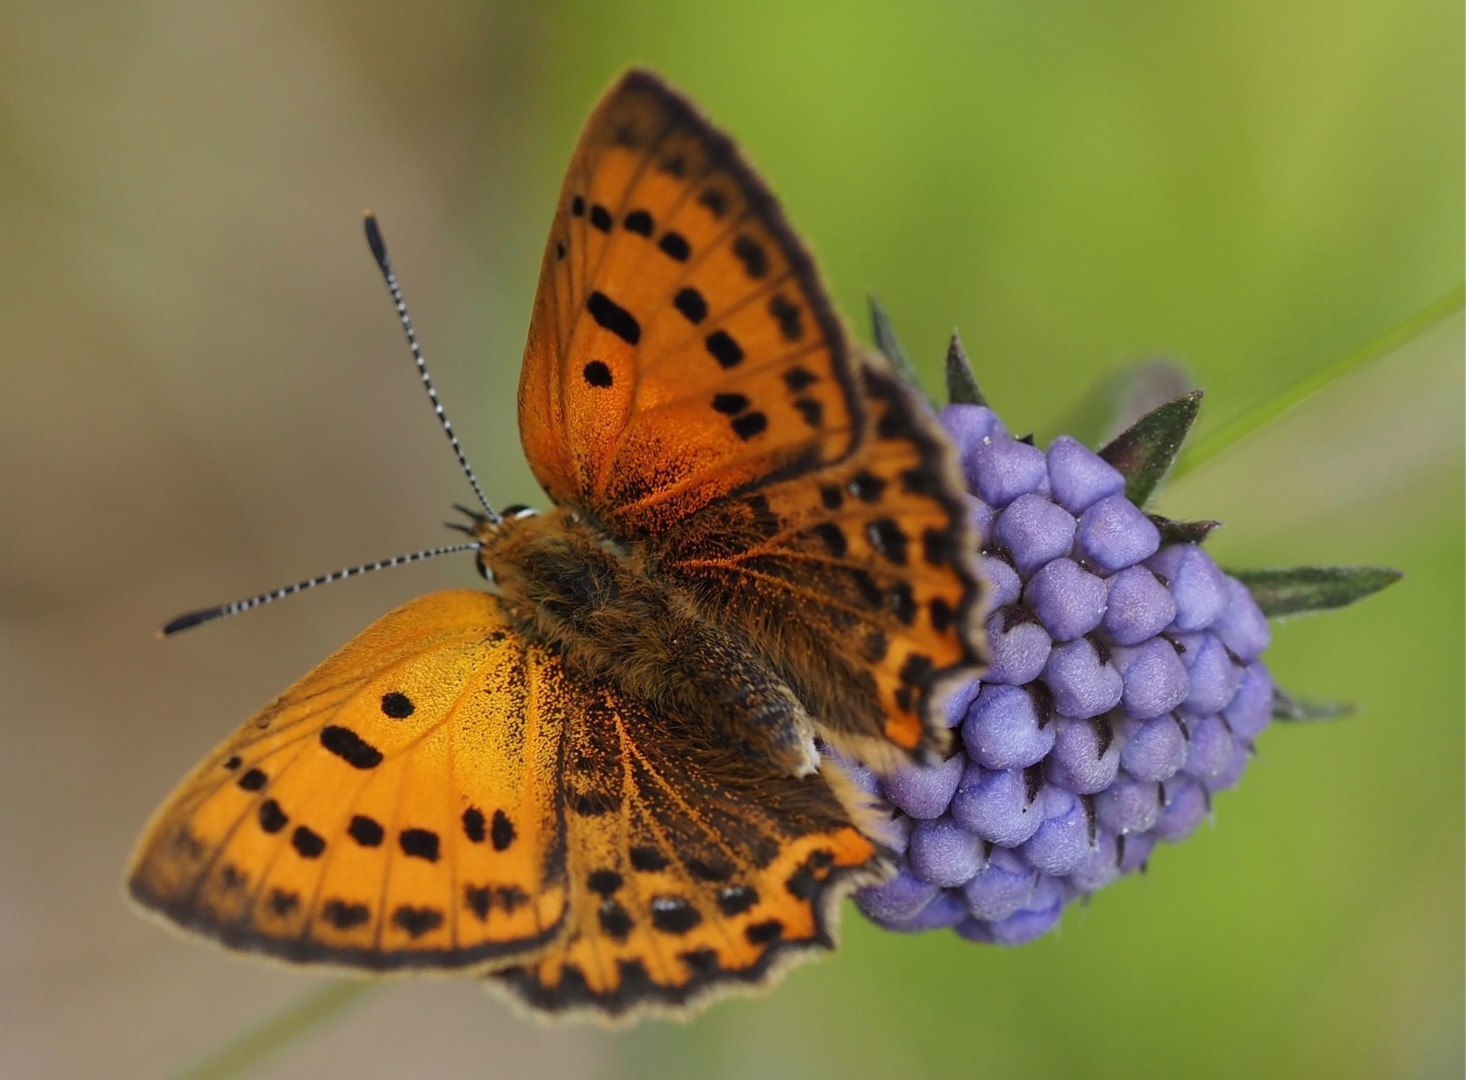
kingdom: Animalia
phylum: Arthropoda
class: Insecta
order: Lepidoptera
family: Lycaenidae
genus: Lycaena
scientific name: Lycaena virgaureae
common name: Dukatsommerfugl
